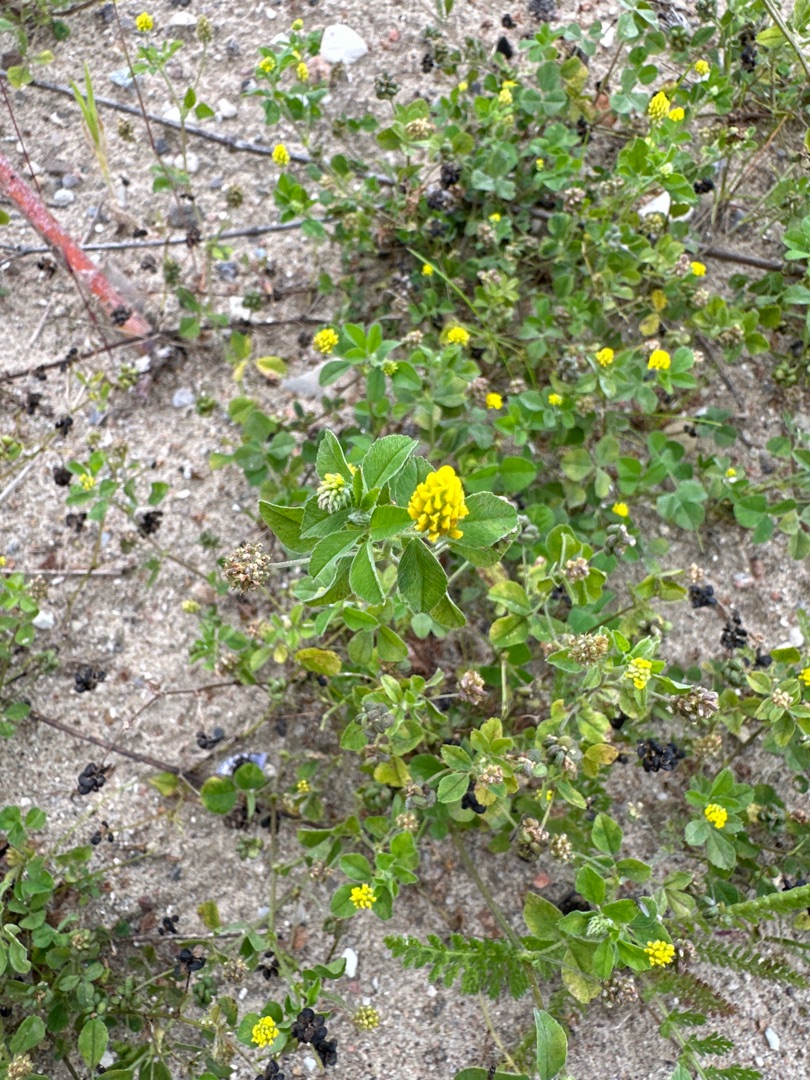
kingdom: Plantae
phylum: Tracheophyta
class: Magnoliopsida
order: Fabales
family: Fabaceae
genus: Medicago
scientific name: Medicago lupulina
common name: Humle-sneglebælg
